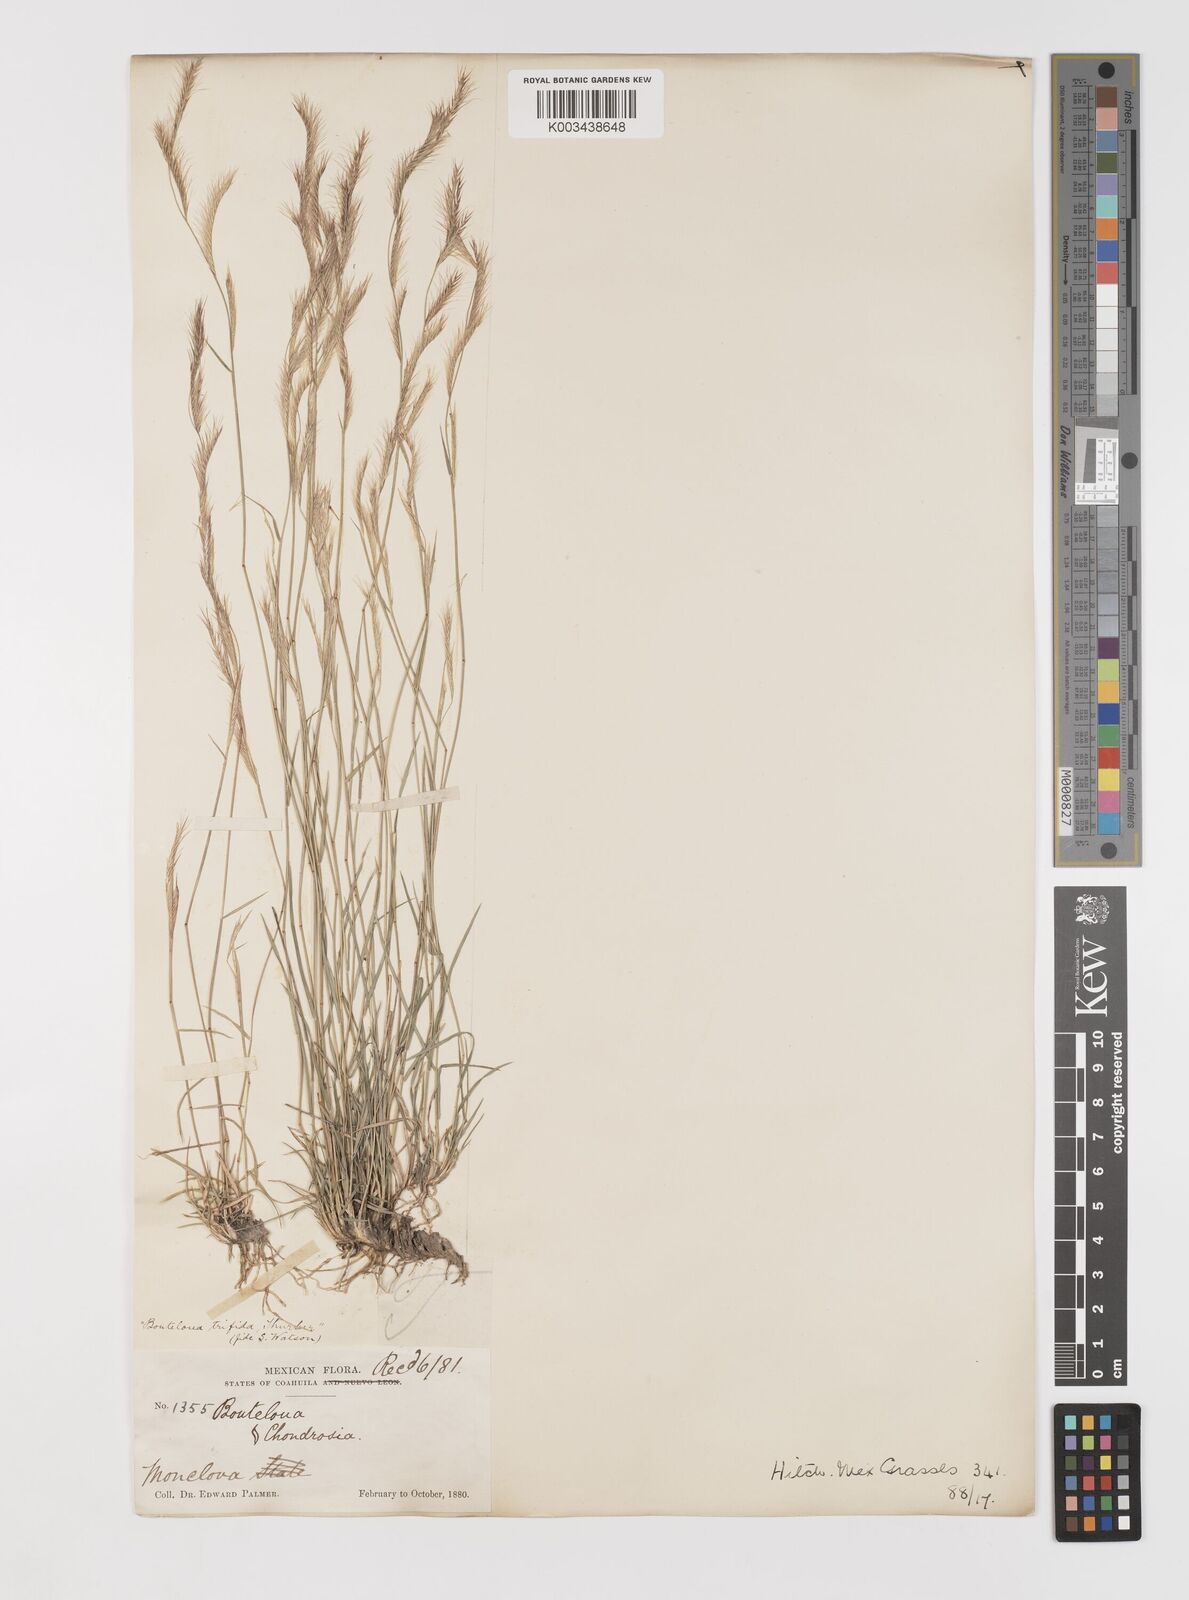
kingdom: Plantae
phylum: Tracheophyta
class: Liliopsida
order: Poales
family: Poaceae
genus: Bouteloua
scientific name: Bouteloua
